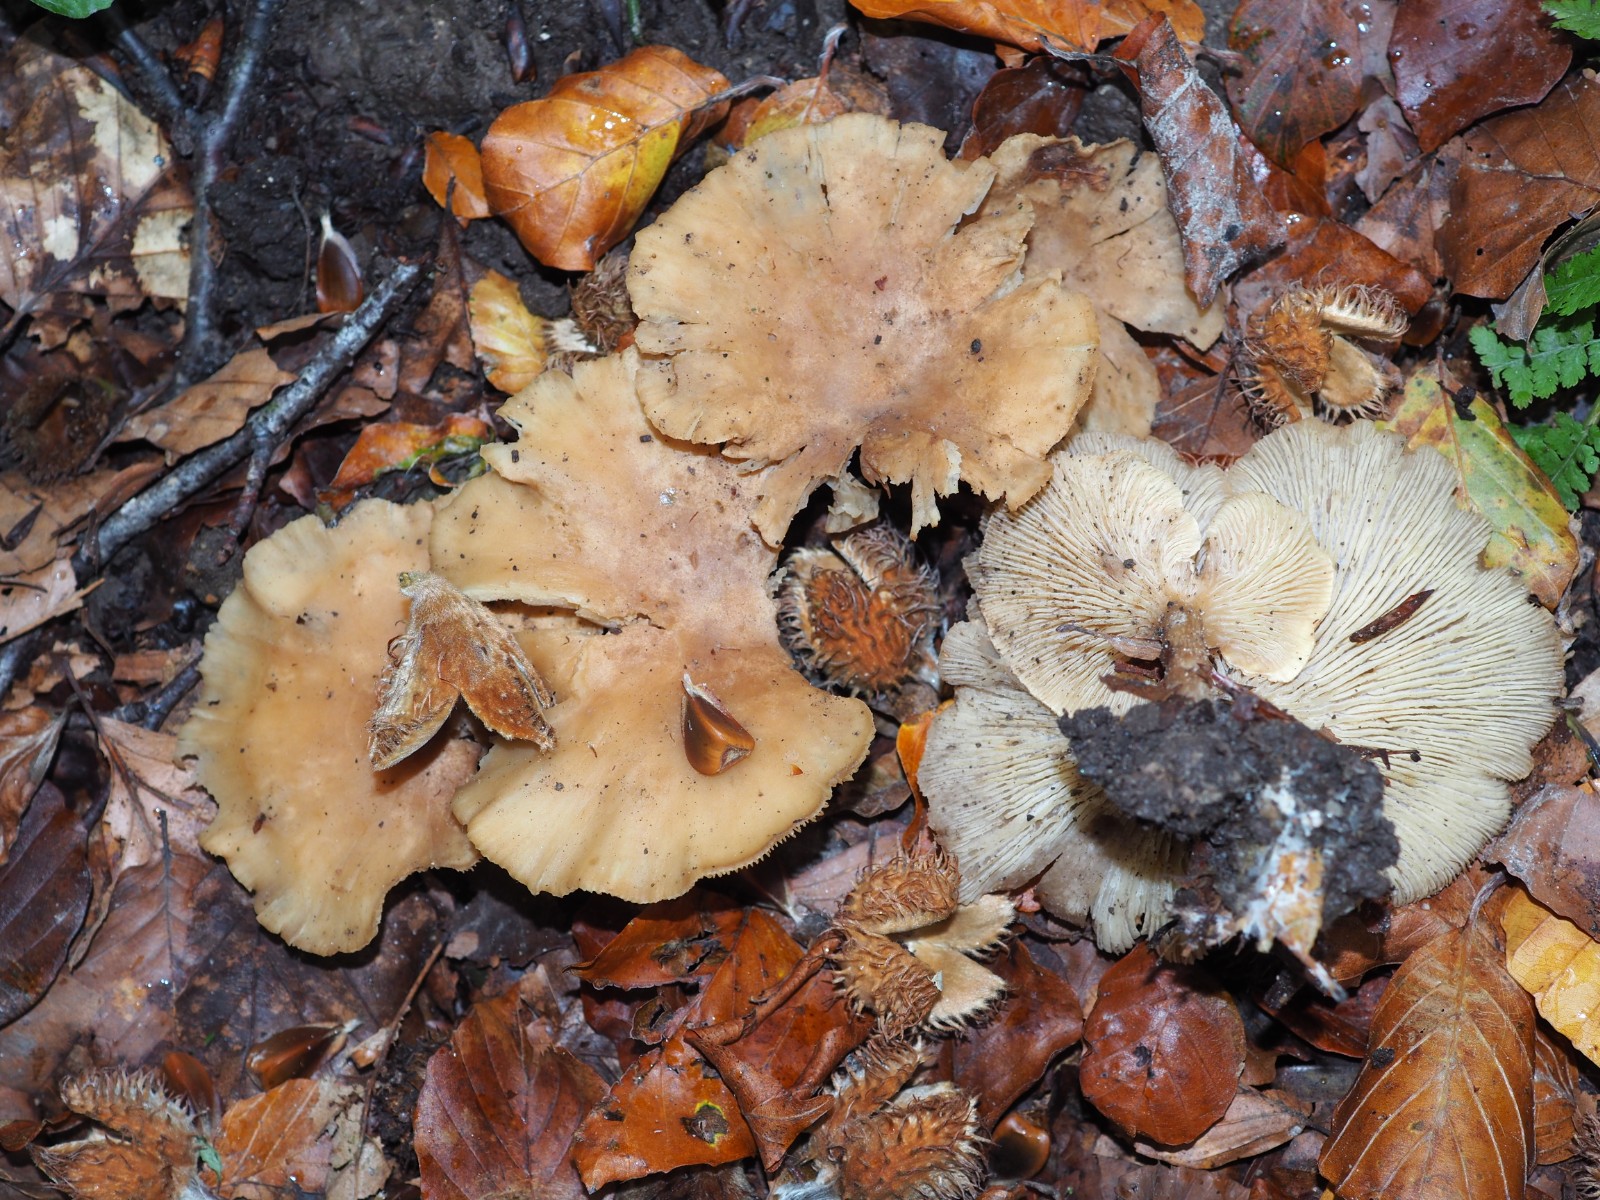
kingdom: Fungi
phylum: Basidiomycota
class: Agaricomycetes
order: Agaricales
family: Tricholomataceae
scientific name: Tricholomataceae
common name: ridderhatfamilien
